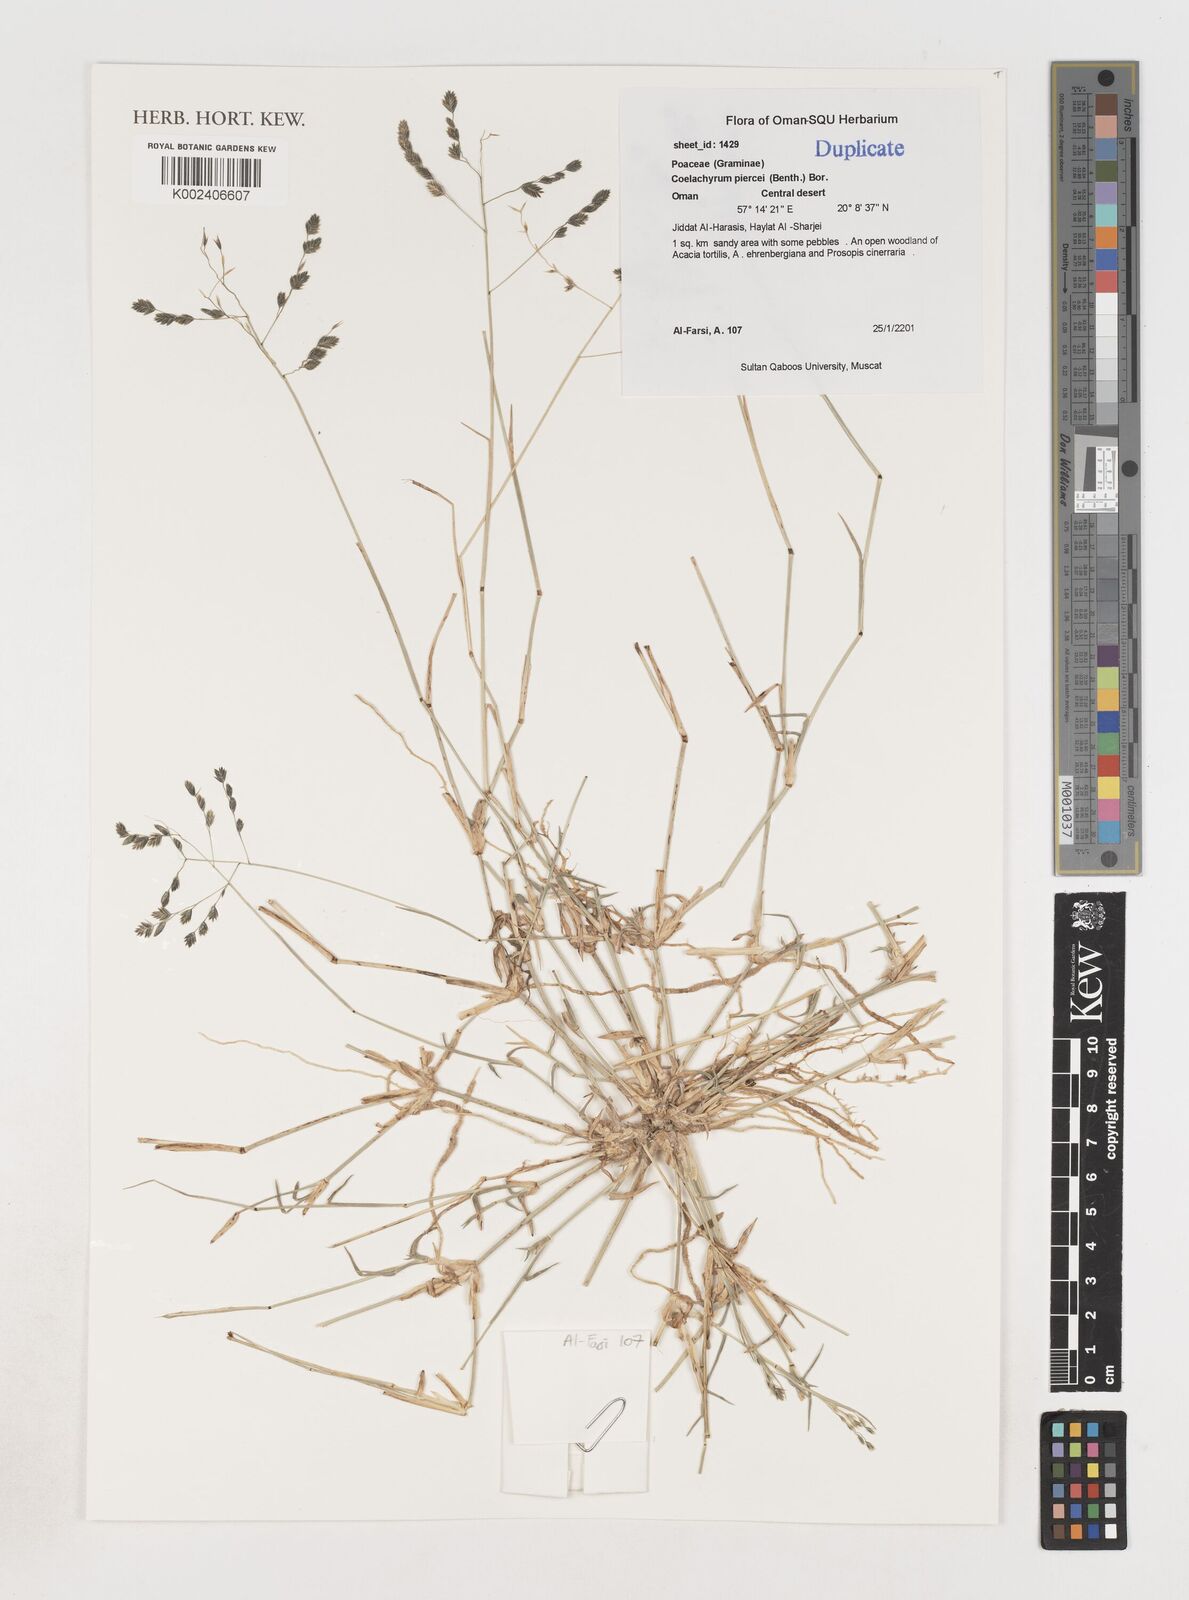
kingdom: Plantae
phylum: Tracheophyta
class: Liliopsida
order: Poales
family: Poaceae
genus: Coelachyrum
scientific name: Coelachyrum piercei
